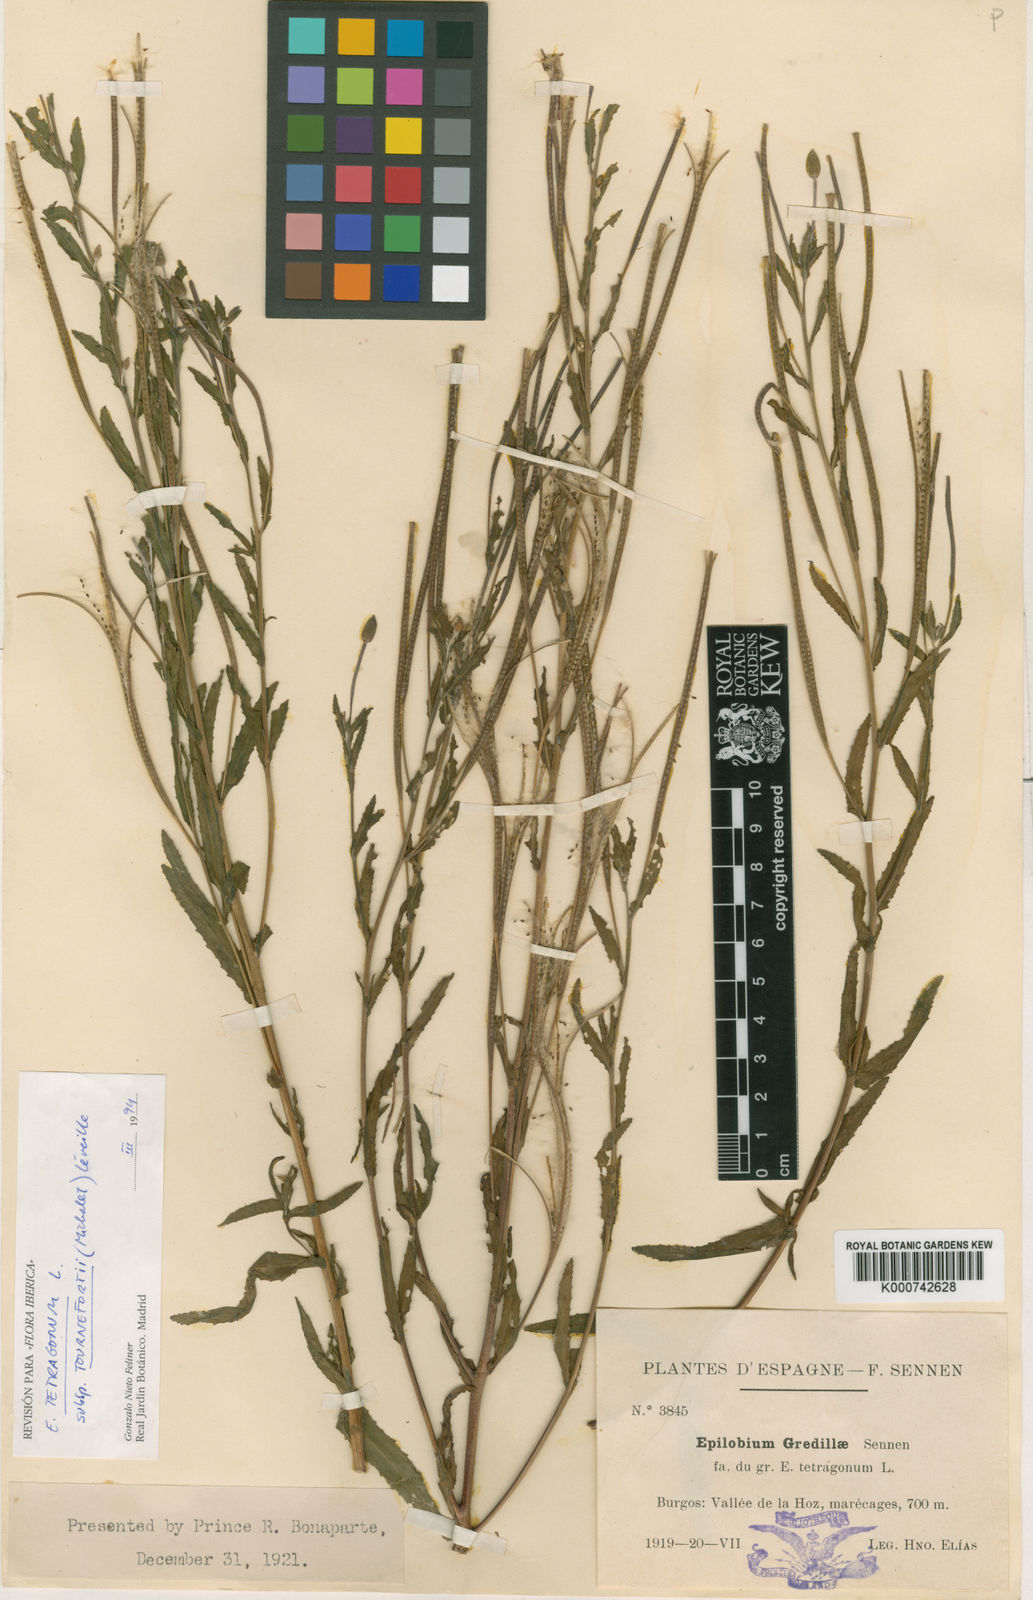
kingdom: Plantae
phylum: Tracheophyta
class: Magnoliopsida
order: Myrtales
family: Onagraceae
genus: Epilobium
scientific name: Epilobium tournefortii
